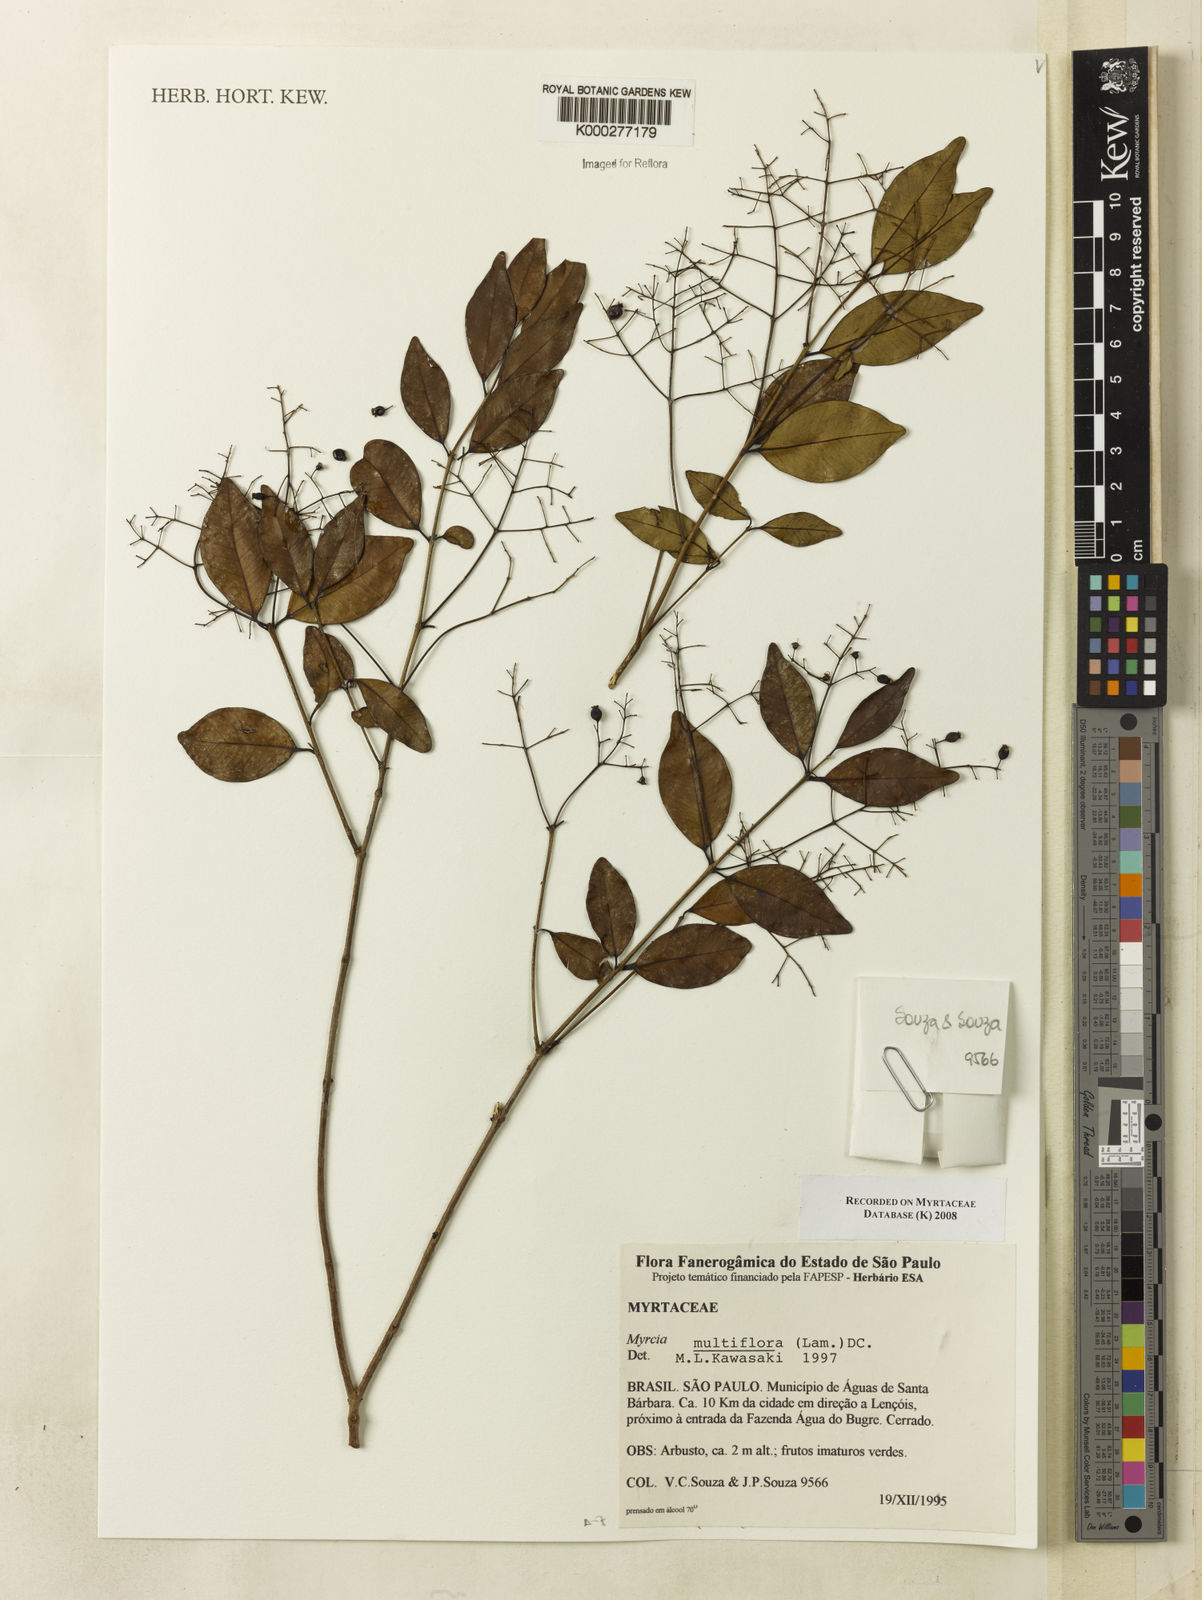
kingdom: Plantae
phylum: Tracheophyta
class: Magnoliopsida
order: Myrtales
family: Myrtaceae
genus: Myrcia
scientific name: Myrcia multiflora
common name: Pedra hume
